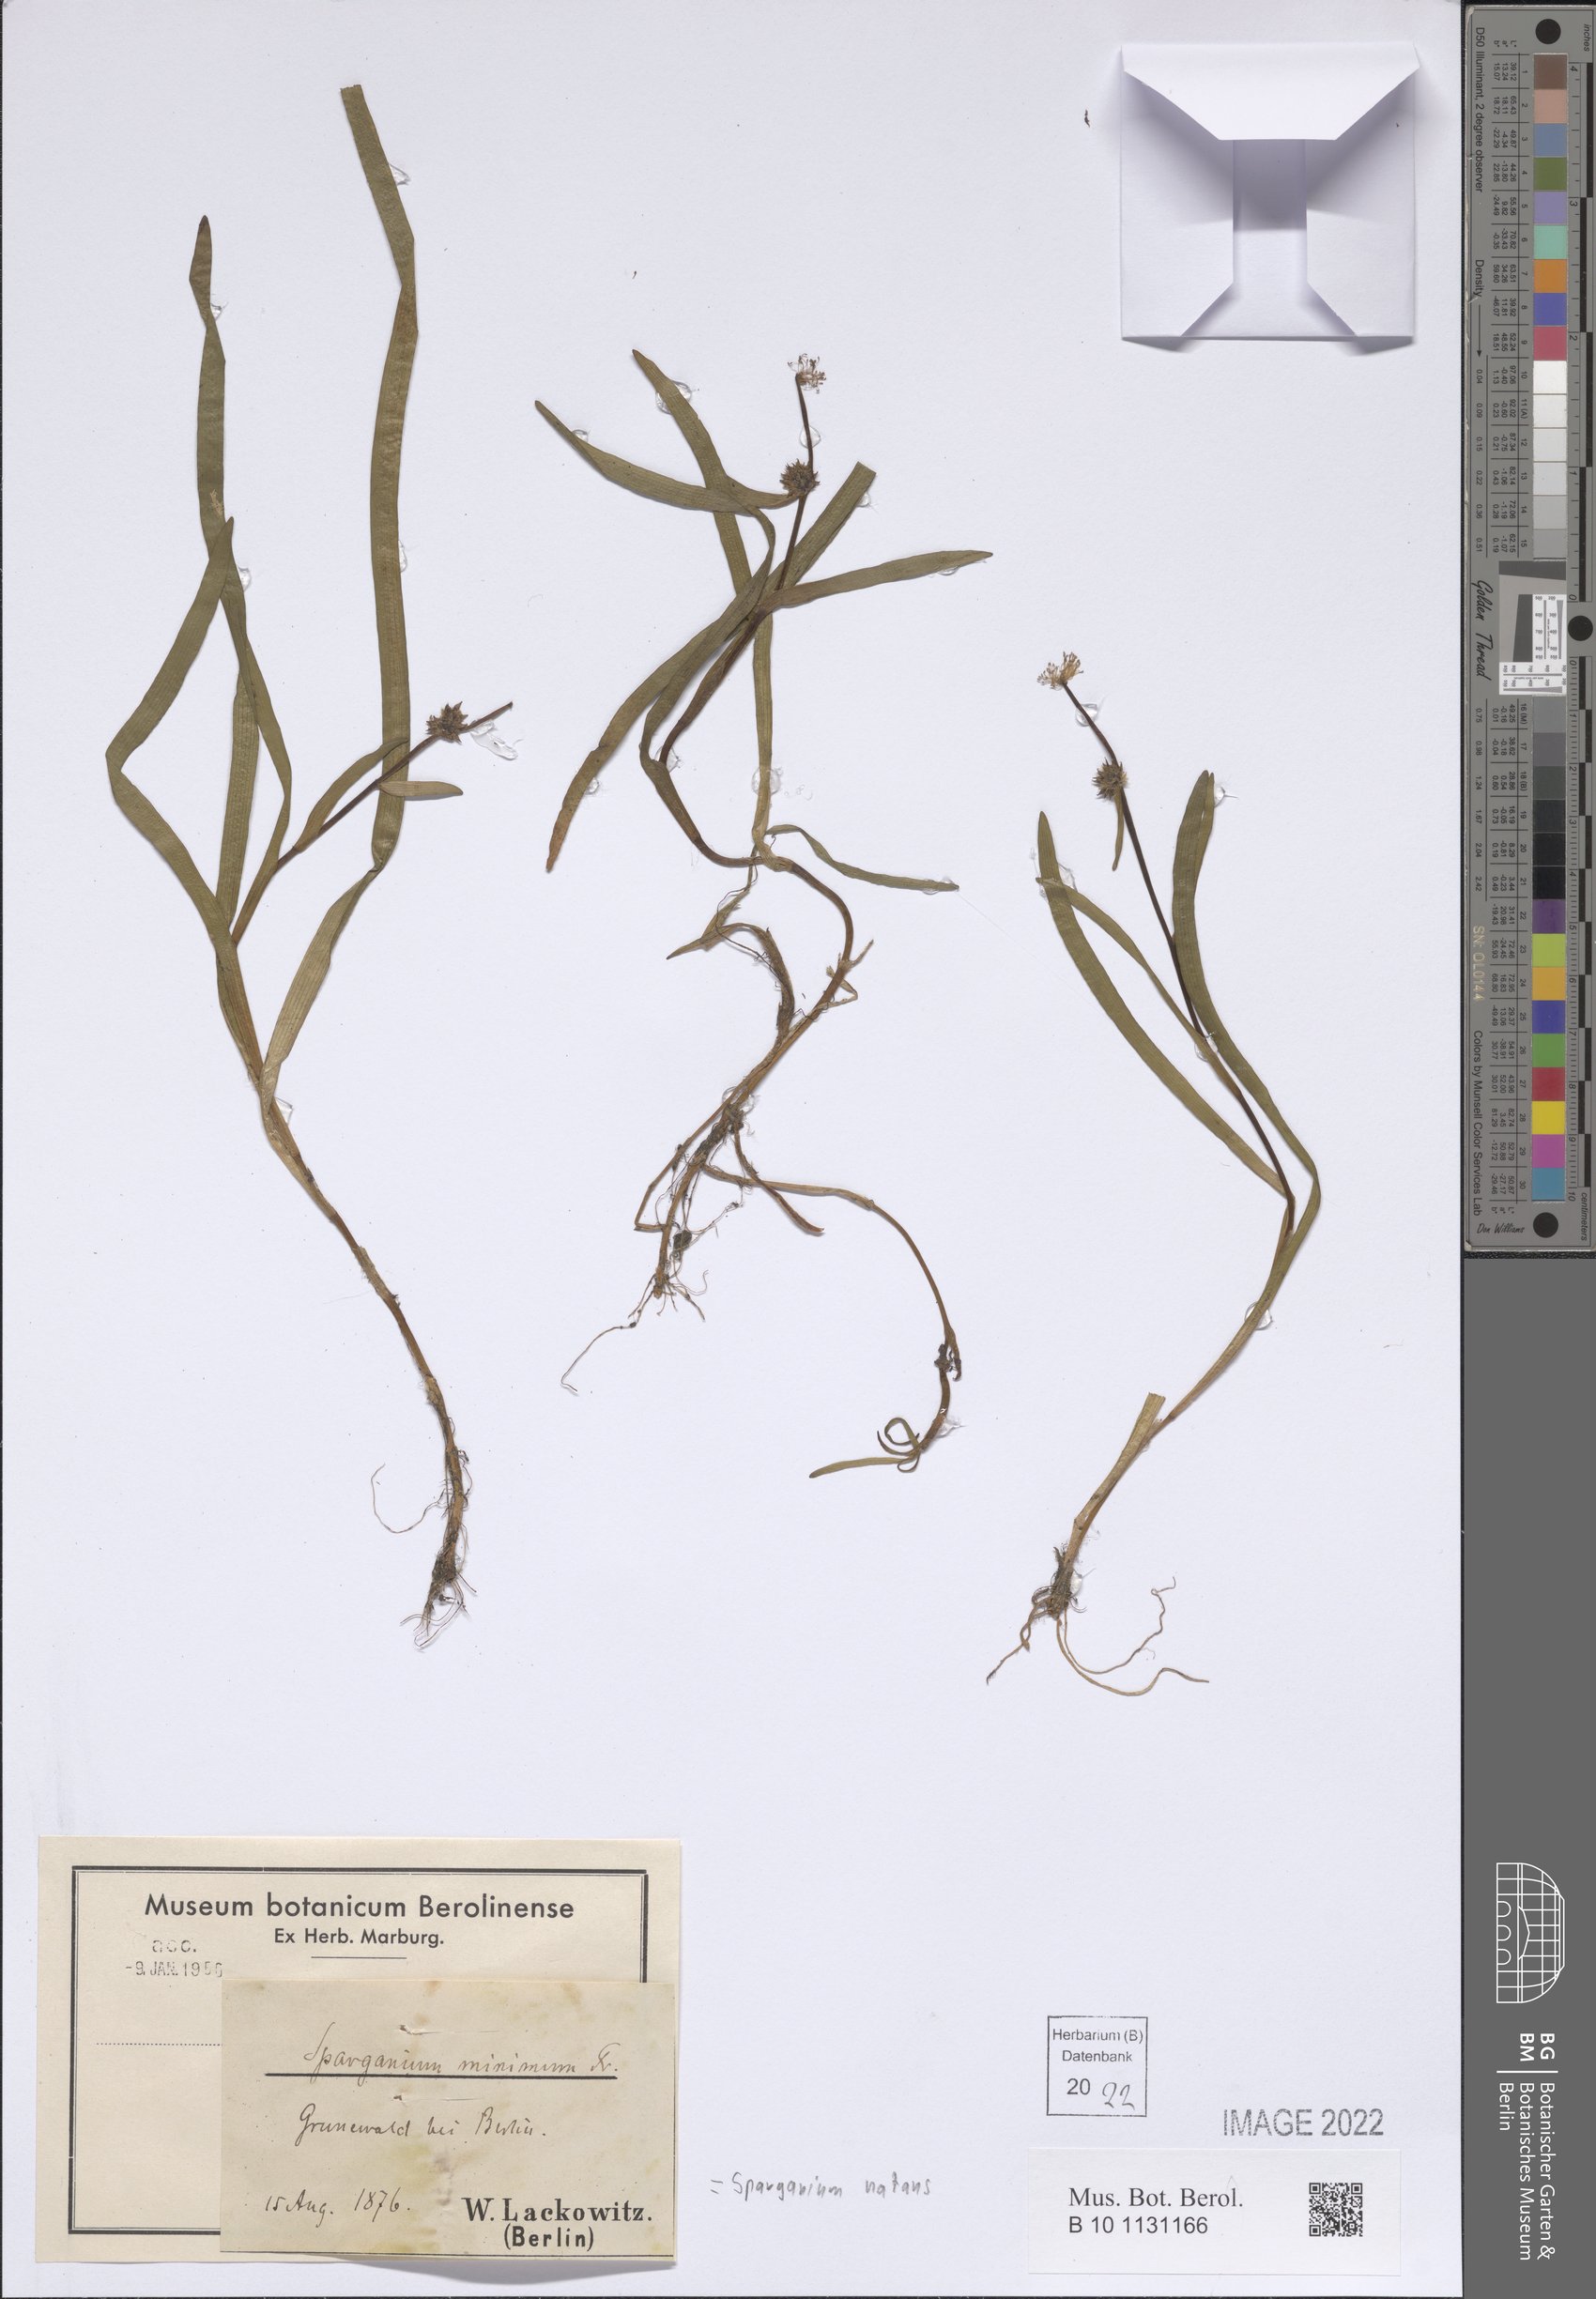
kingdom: Plantae
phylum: Tracheophyta
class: Liliopsida
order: Poales
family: Typhaceae
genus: Sparganium
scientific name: Sparganium natans
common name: Least bur-reed
